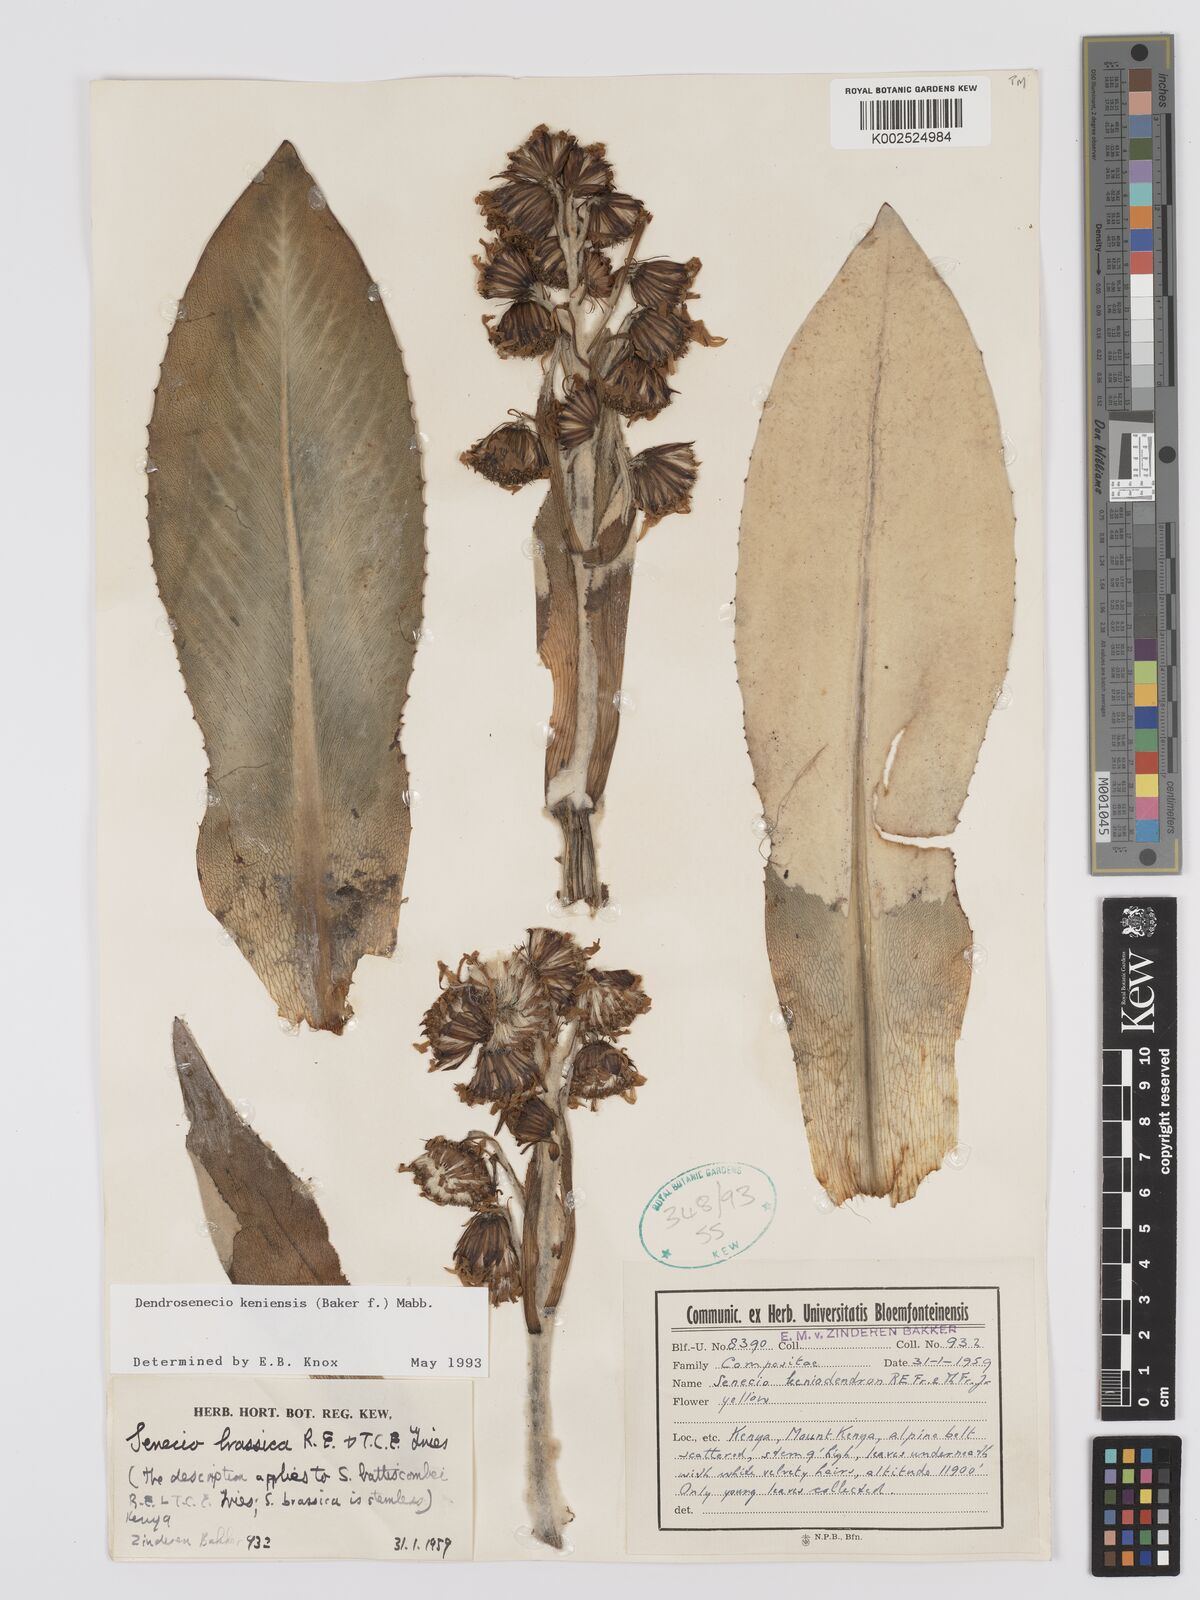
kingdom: Plantae
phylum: Tracheophyta
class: Magnoliopsida
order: Asterales
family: Asteraceae
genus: Dendrosenecio
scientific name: Dendrosenecio keniensis
